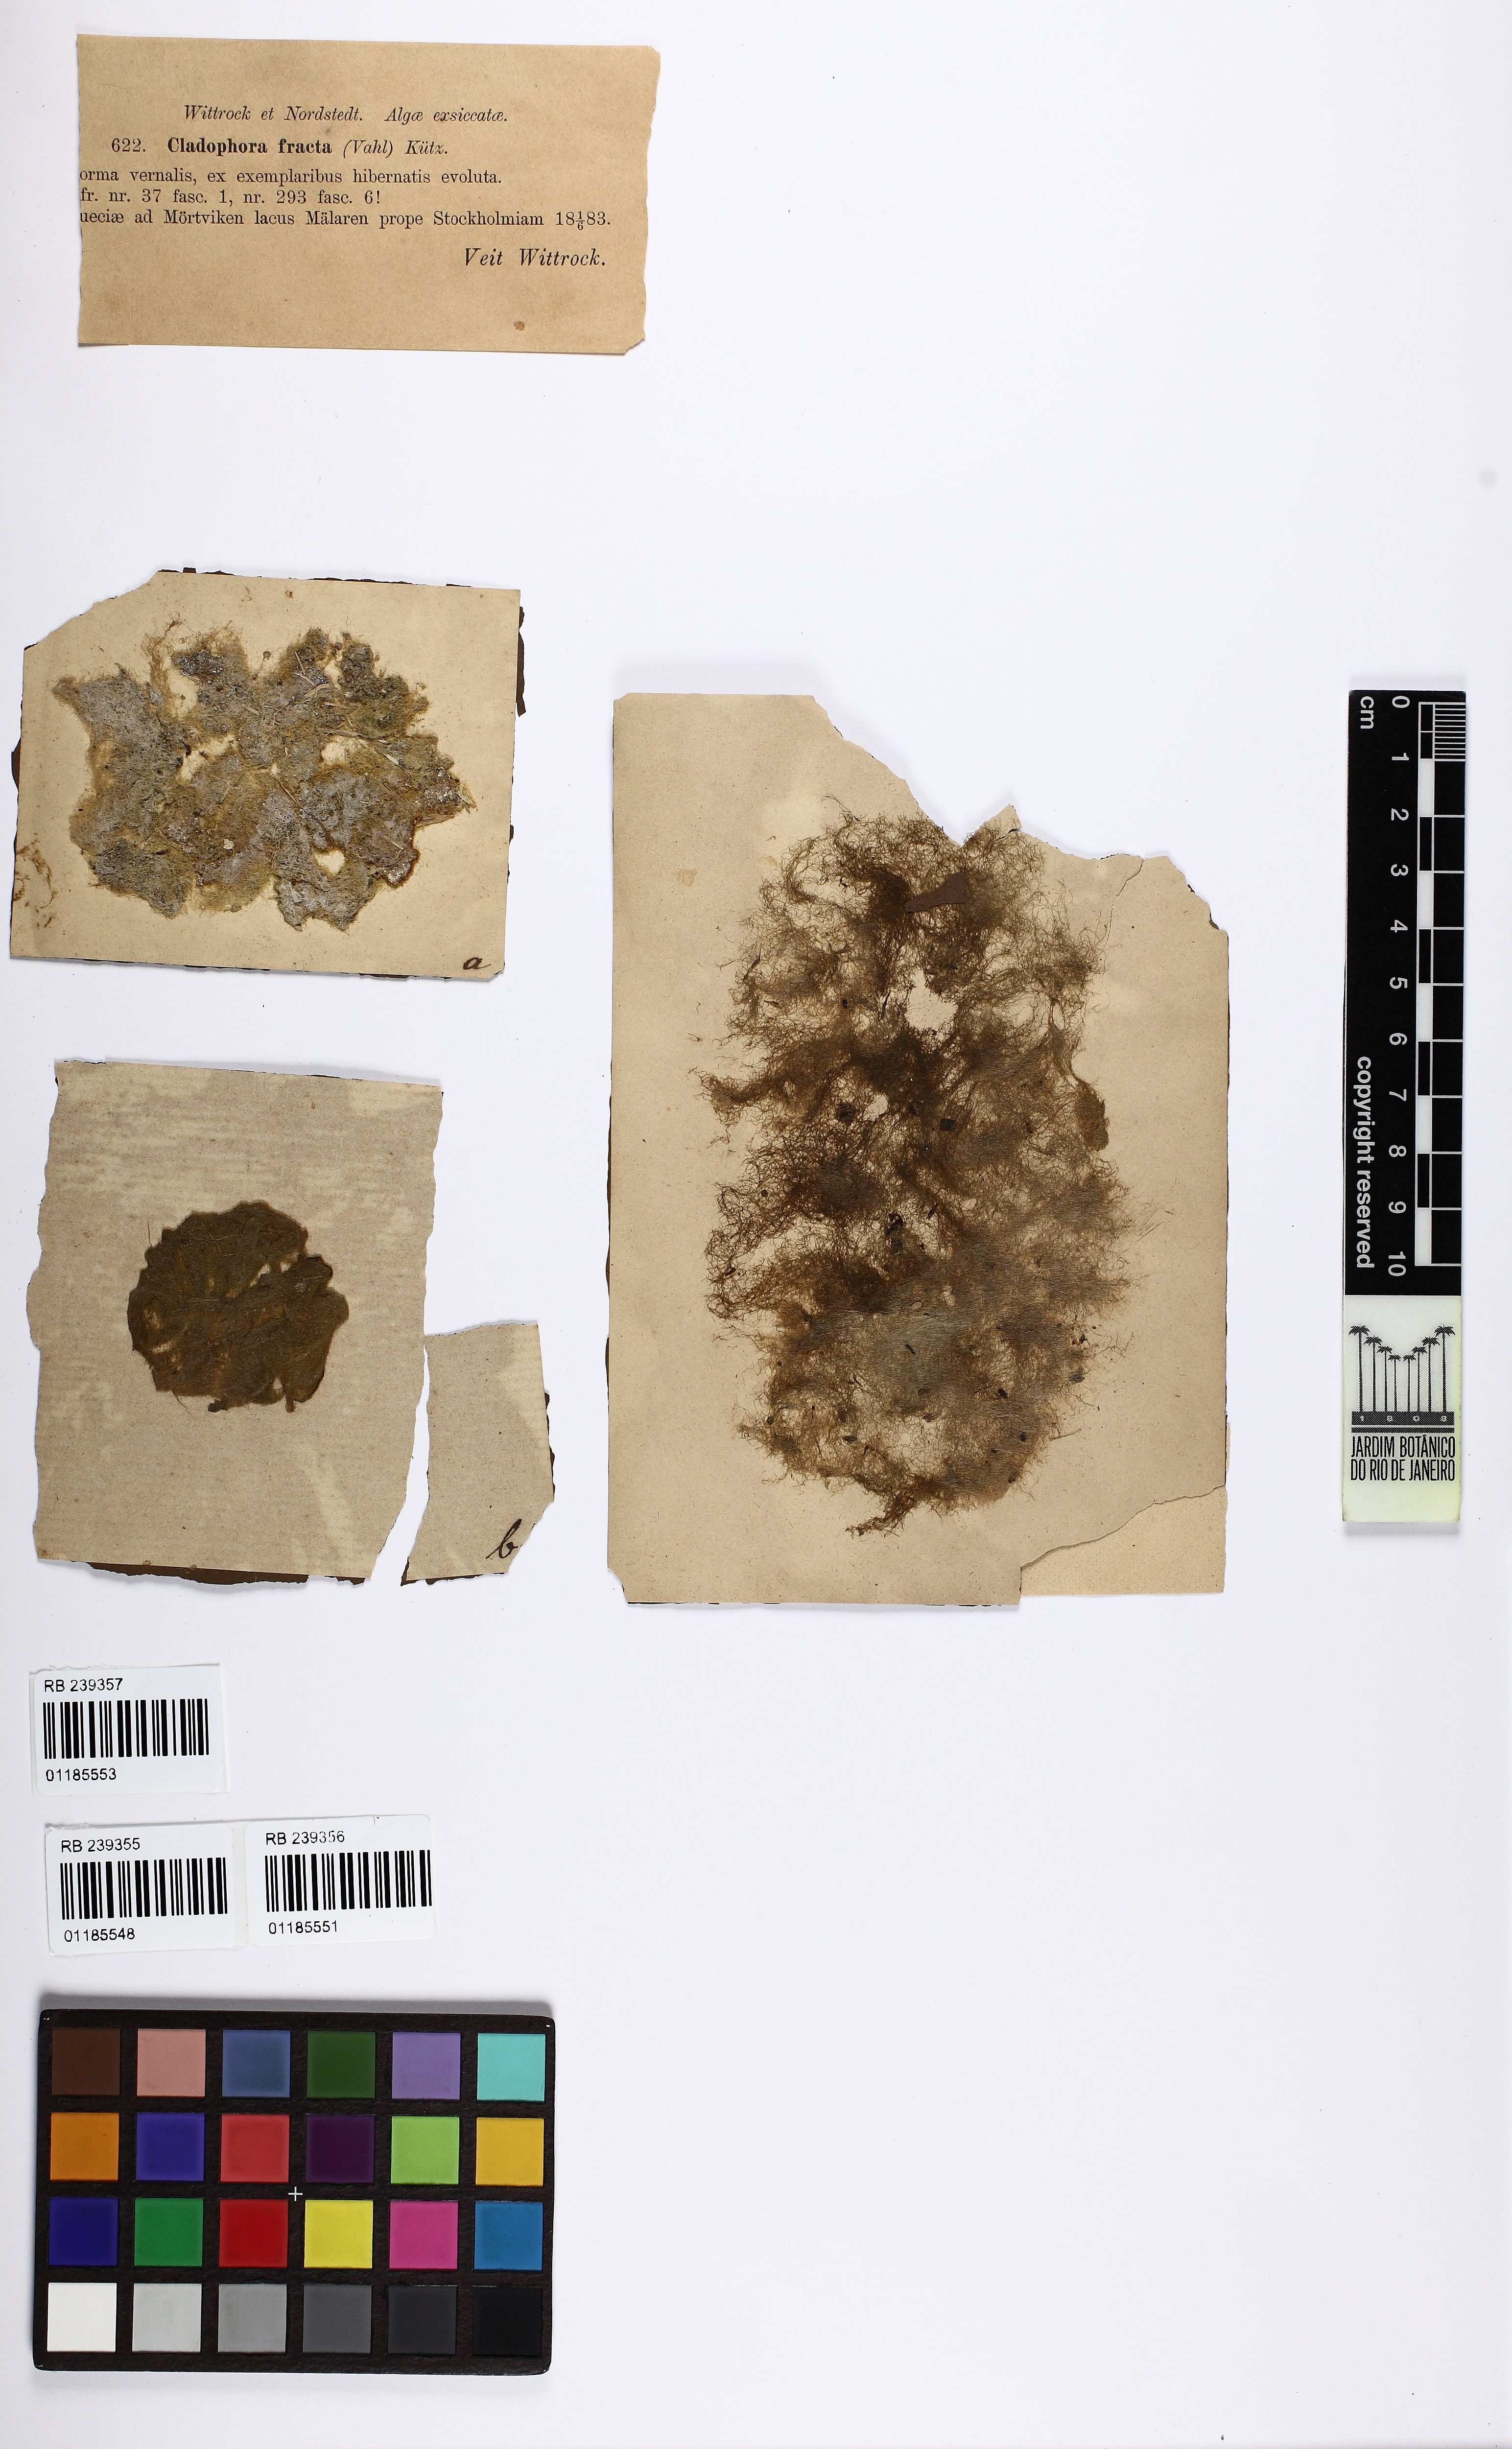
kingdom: Plantae
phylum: Chlorophyta
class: Ulvophyceae
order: Cladophorales
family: Cladophoraceae
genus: Rhizoclonium
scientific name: Rhizoclonium riparium
